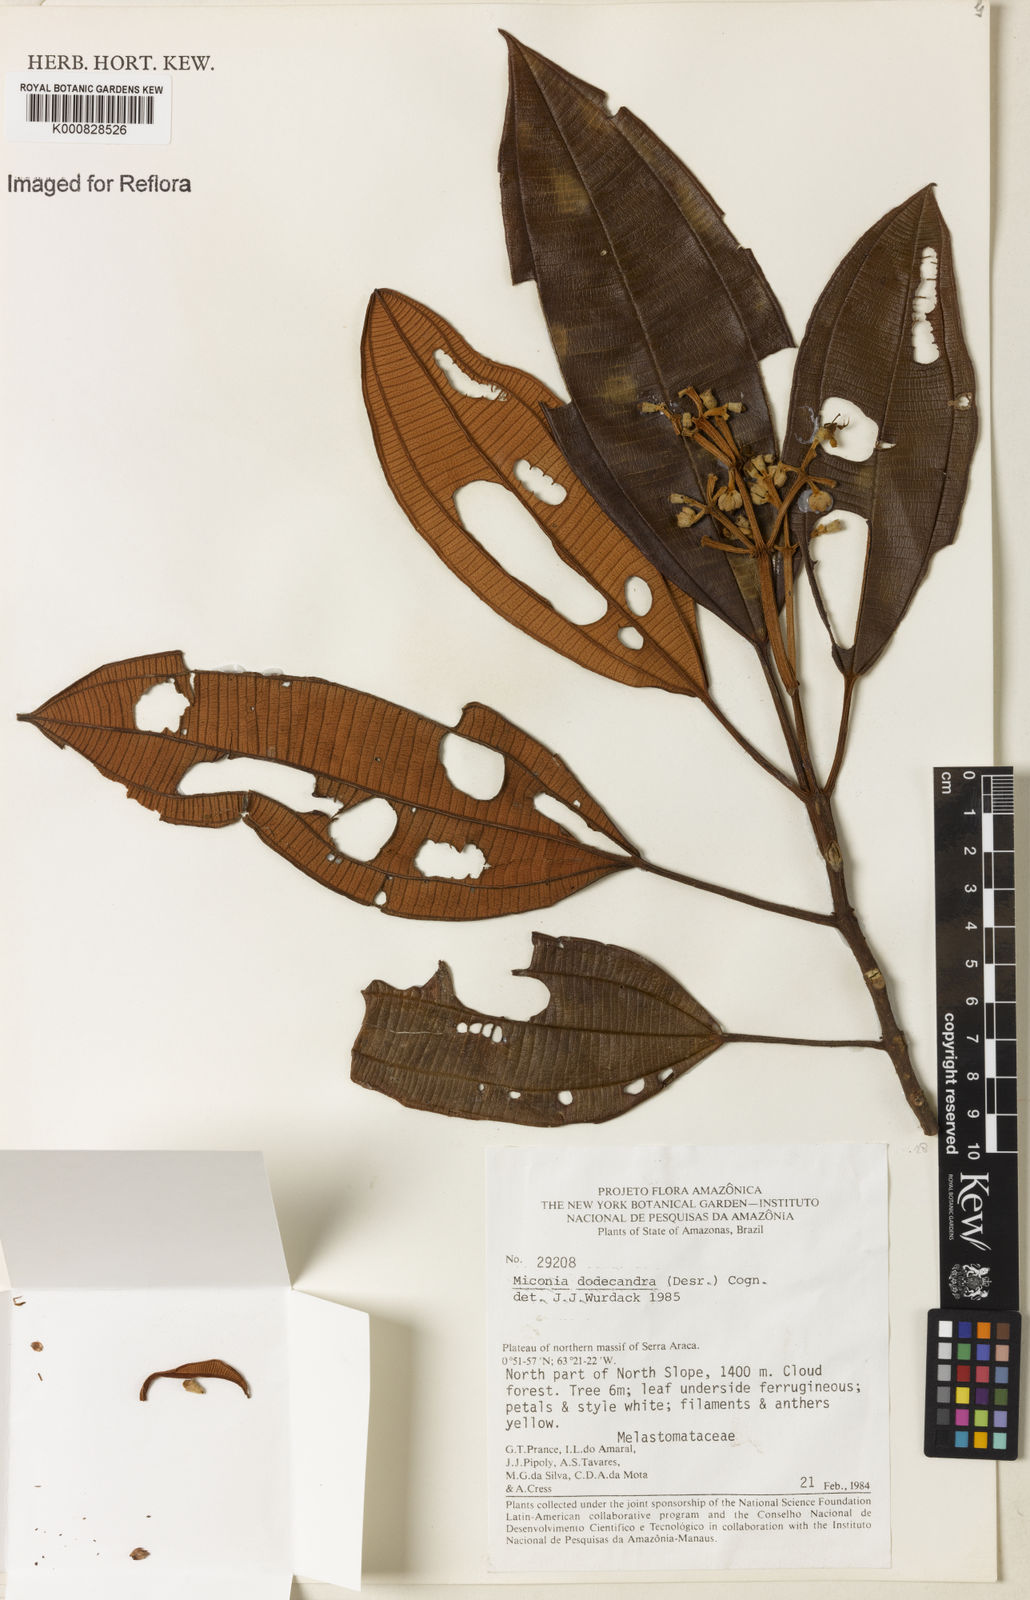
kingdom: Plantae
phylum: Tracheophyta
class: Magnoliopsida
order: Myrtales
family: Melastomataceae
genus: Miconia
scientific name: Miconia dodecandra
